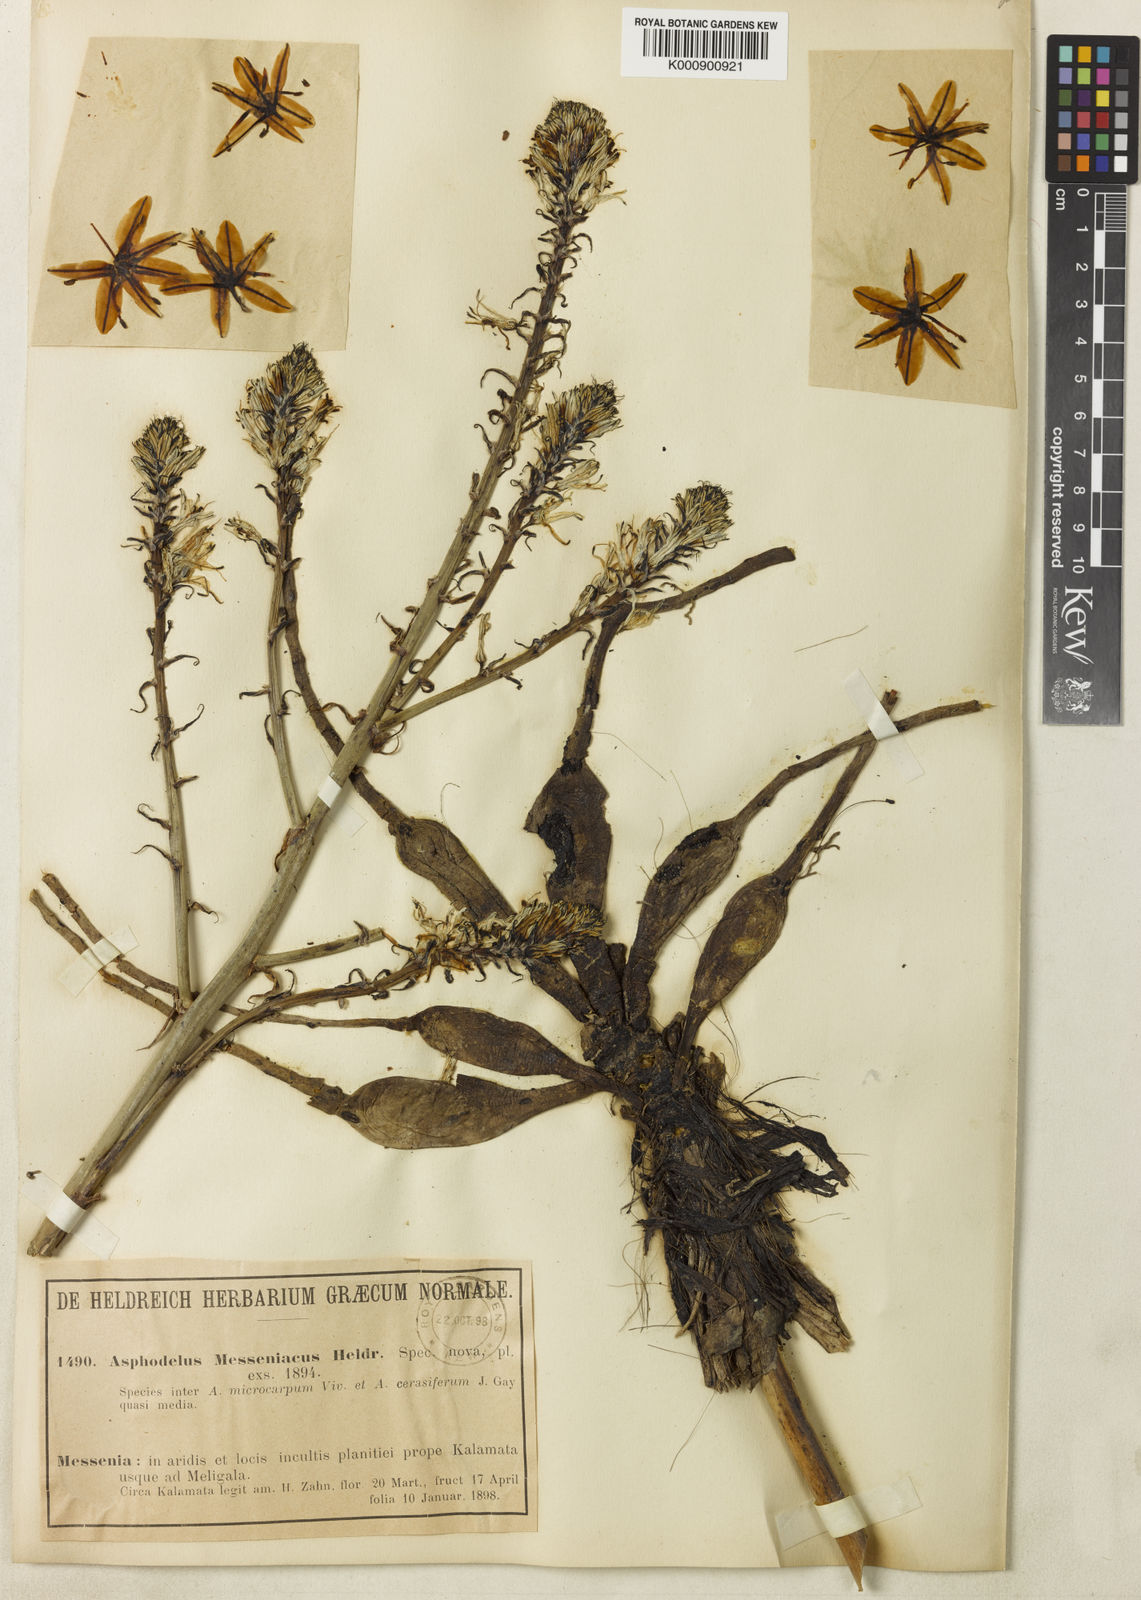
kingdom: Plantae
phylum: Tracheophyta
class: Liliopsida
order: Asparagales
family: Asphodelaceae
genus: Asphodelus
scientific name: Asphodelus
